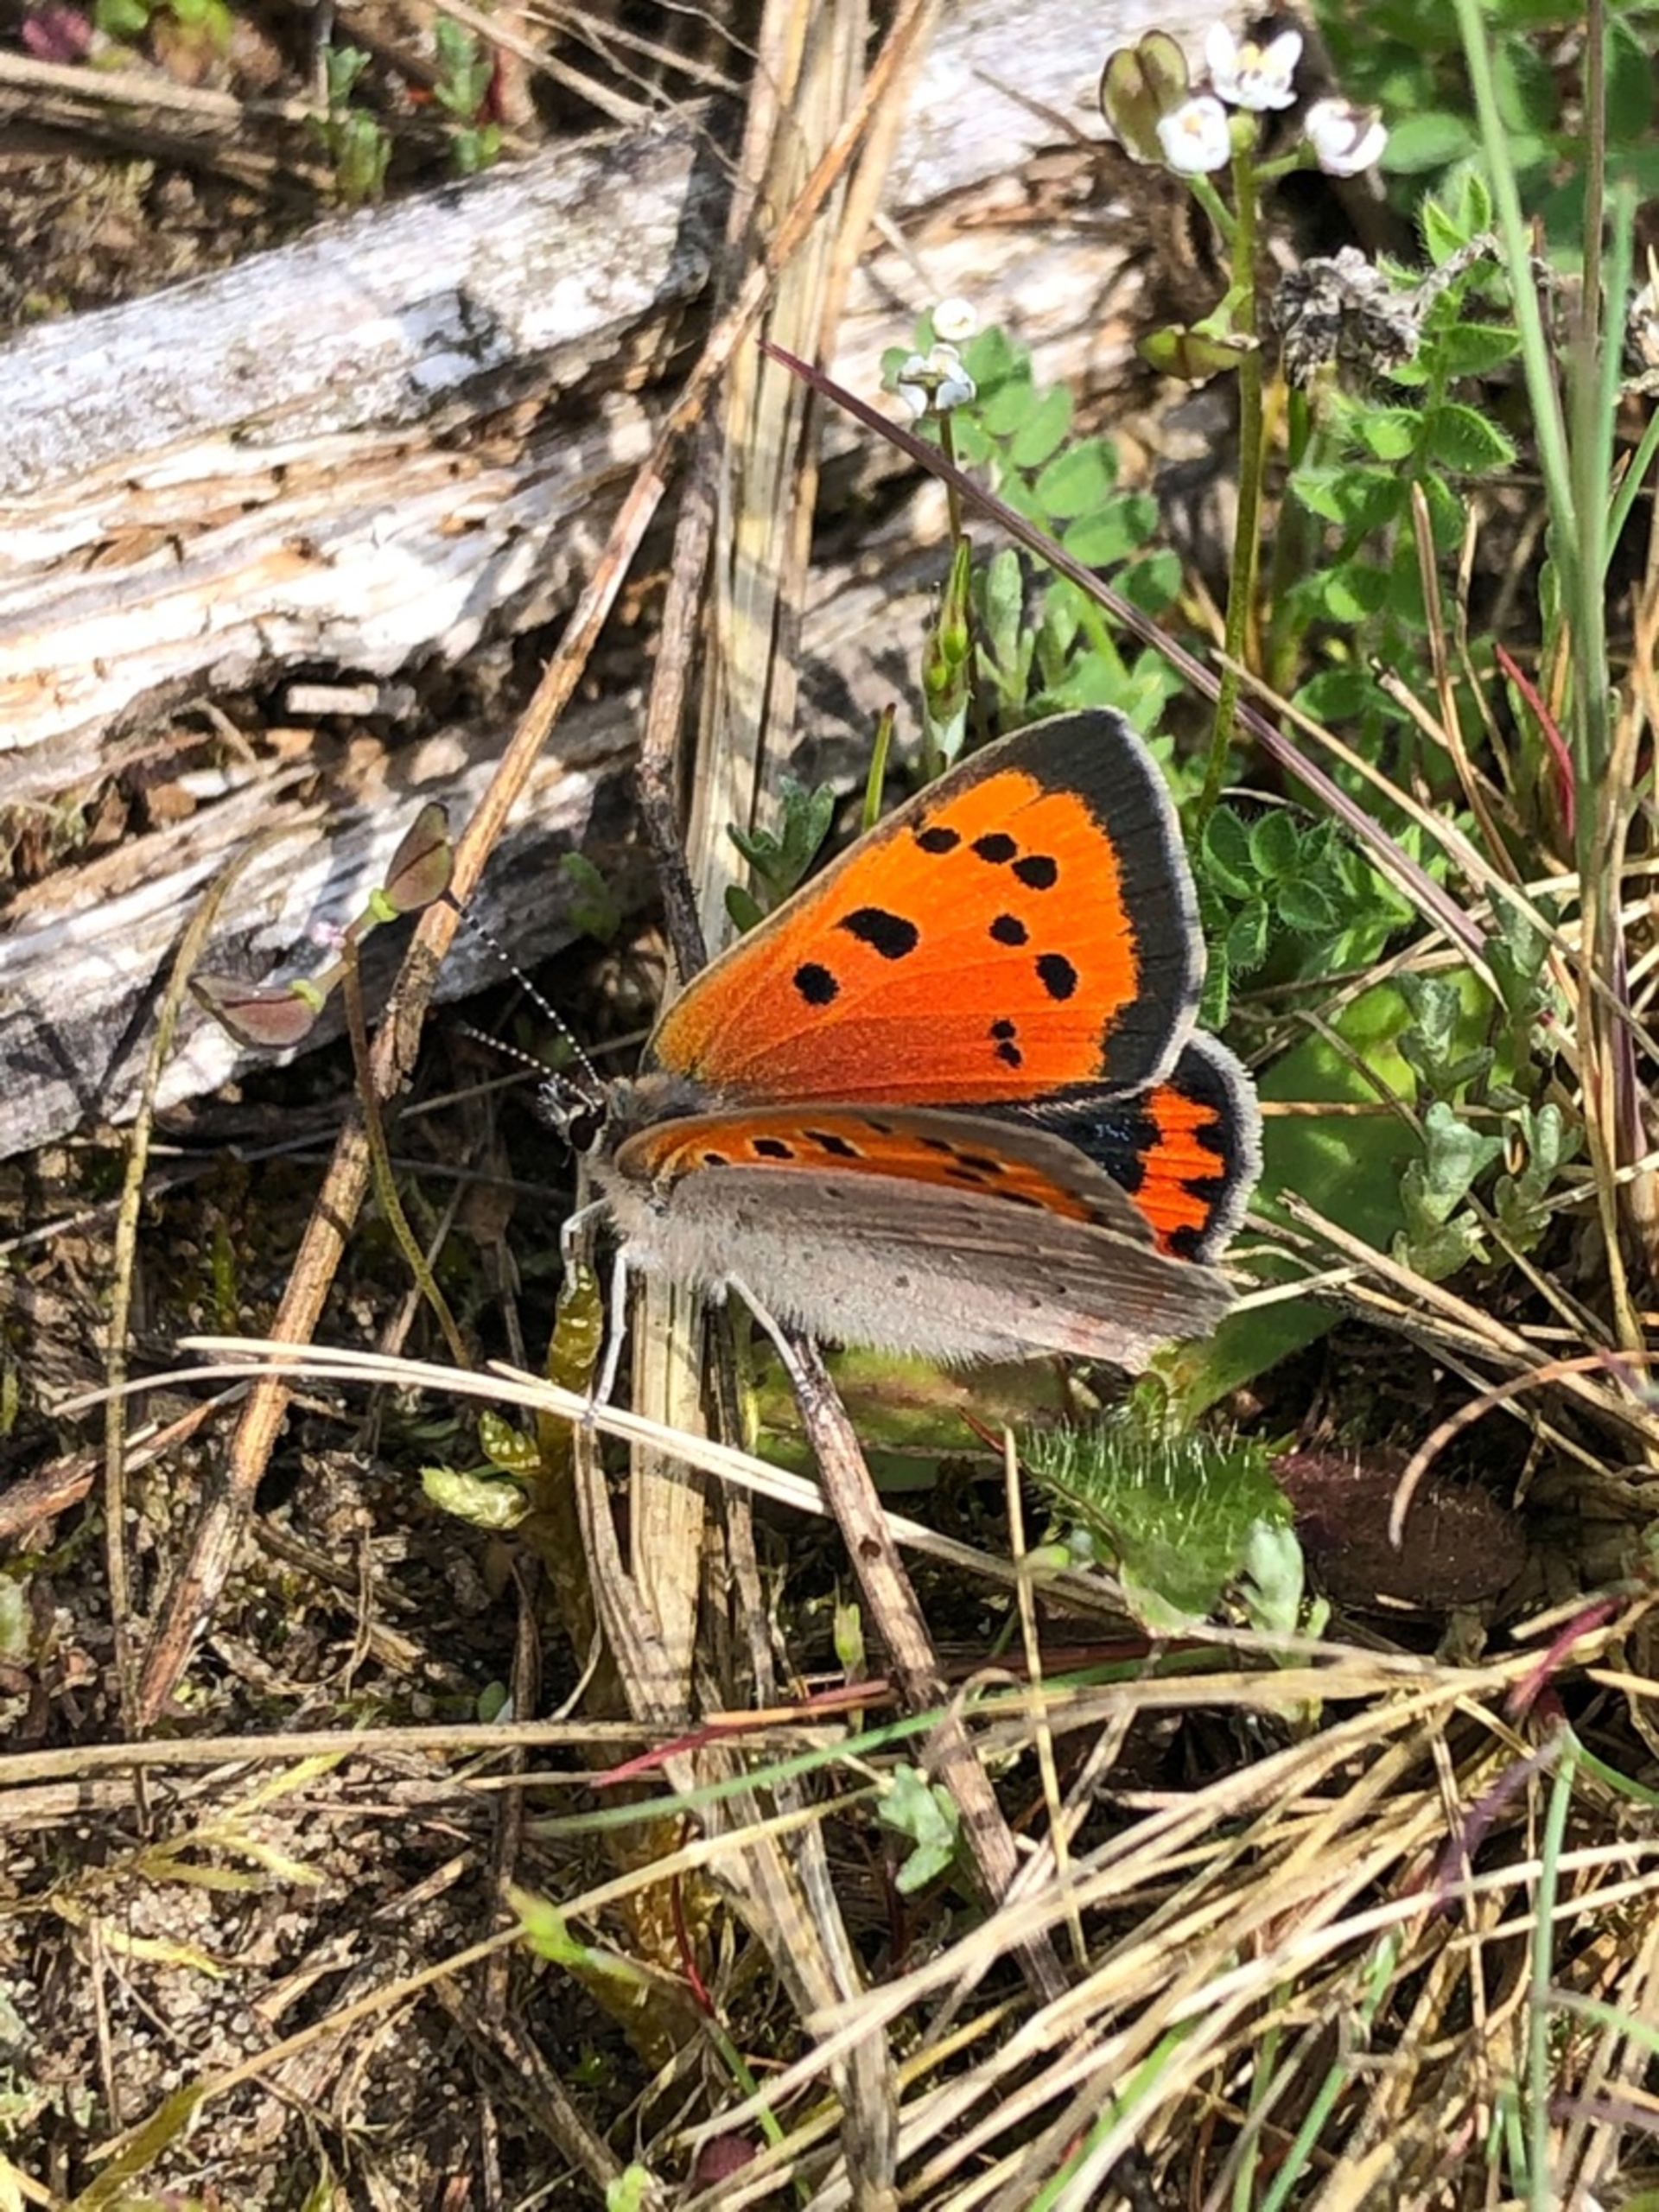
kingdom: Animalia
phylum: Arthropoda
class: Insecta
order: Lepidoptera
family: Lycaenidae
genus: Lycaena
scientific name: Lycaena phlaeas
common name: Lille ildfugl
